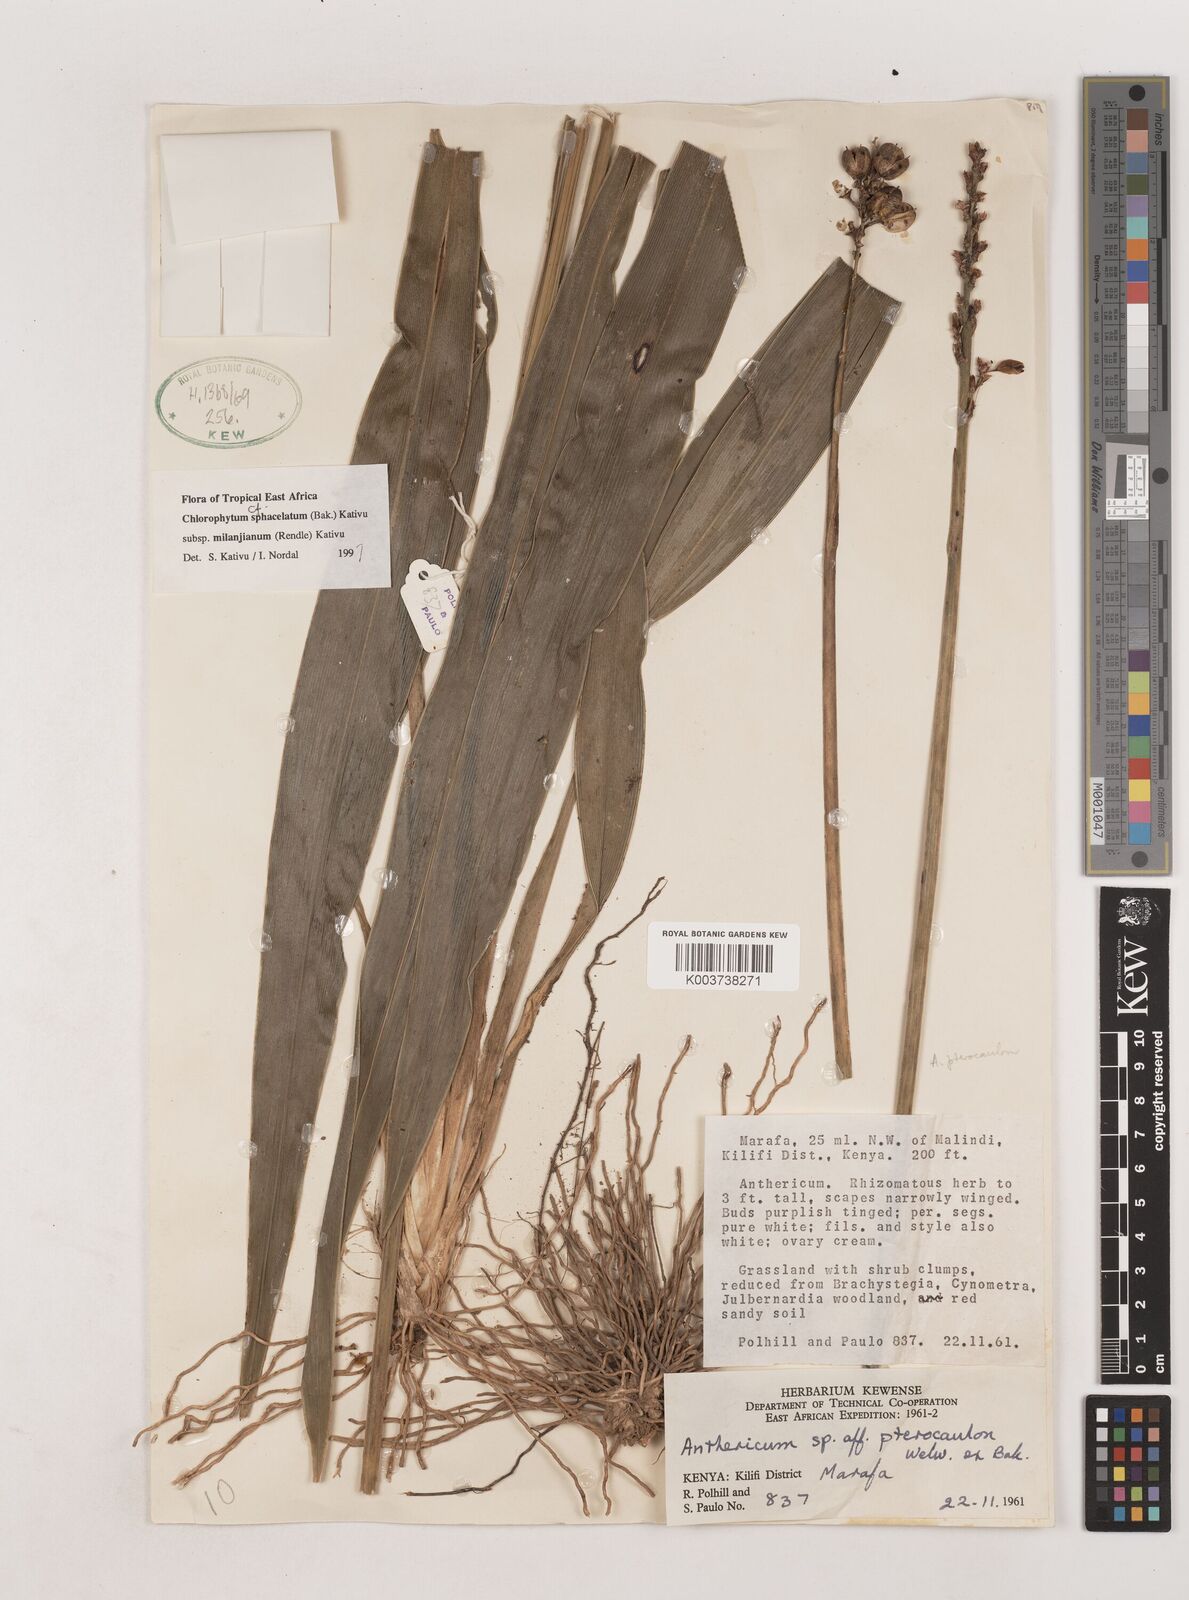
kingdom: Plantae
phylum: Tracheophyta
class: Liliopsida
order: Asparagales
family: Asparagaceae
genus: Chlorophytum
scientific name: Chlorophytum sphacelatum
